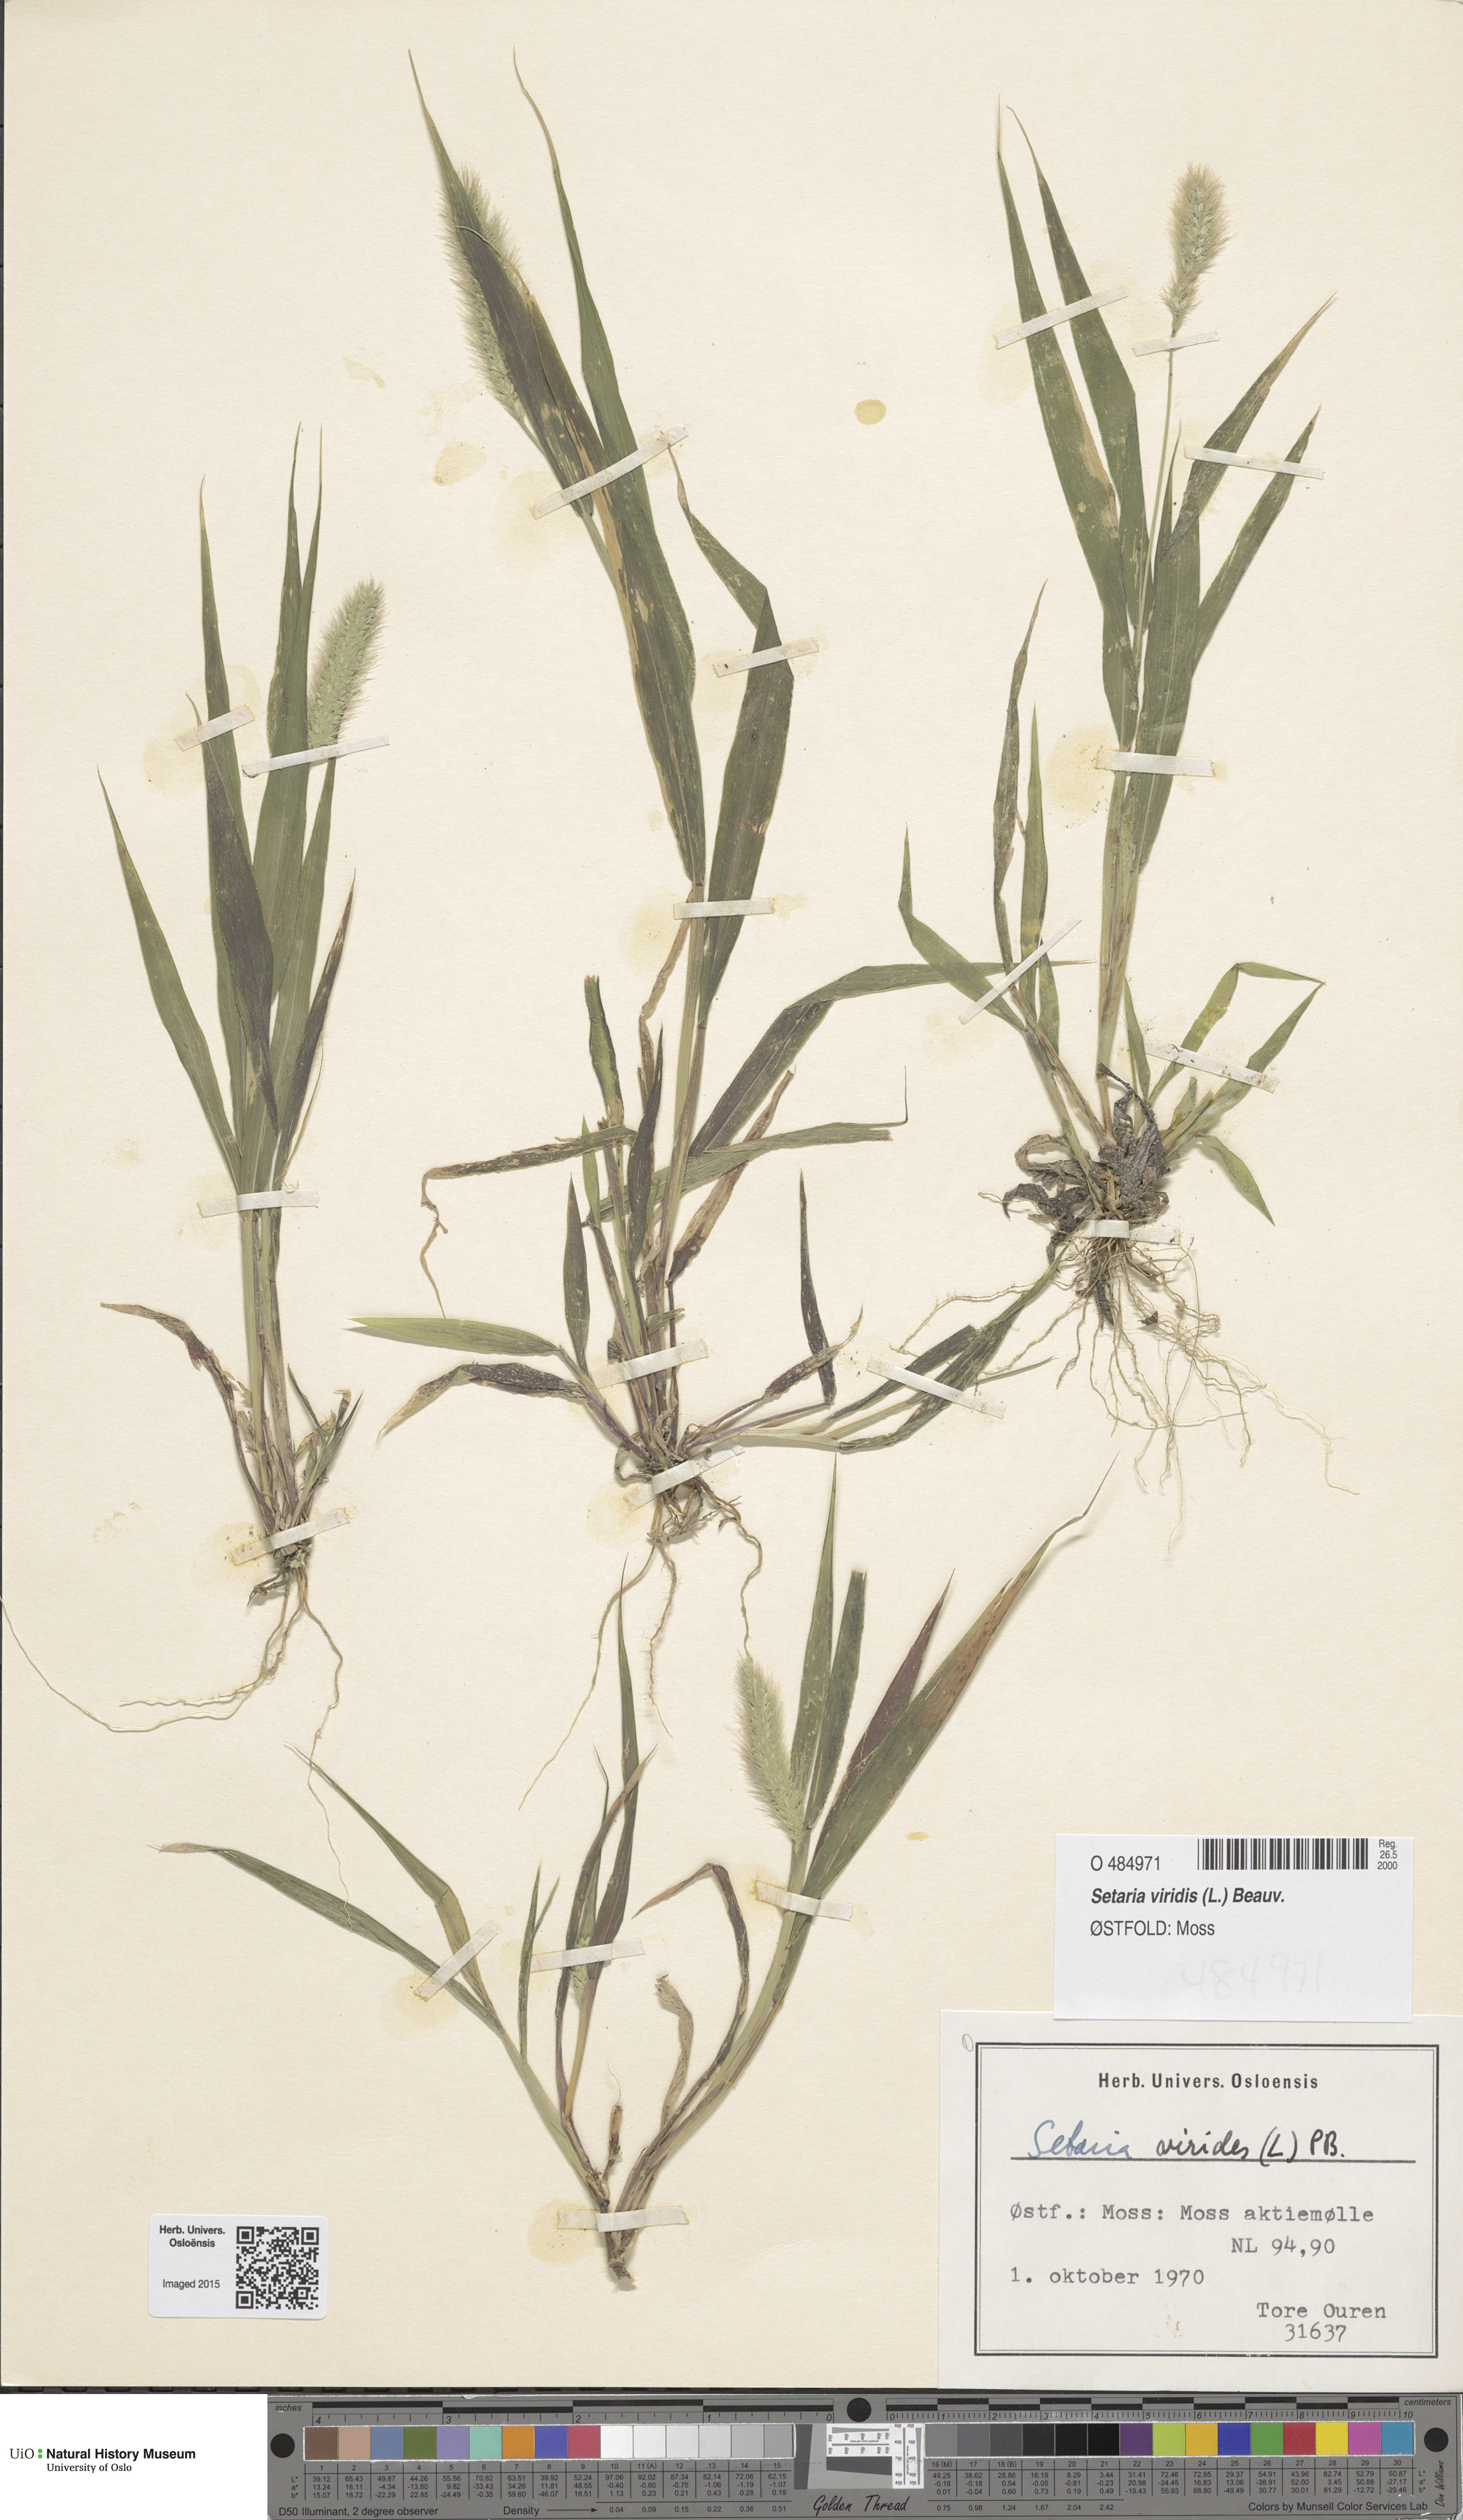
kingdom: Plantae
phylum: Tracheophyta
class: Liliopsida
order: Poales
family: Poaceae
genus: Setaria
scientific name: Setaria viridis
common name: Green bristlegrass
